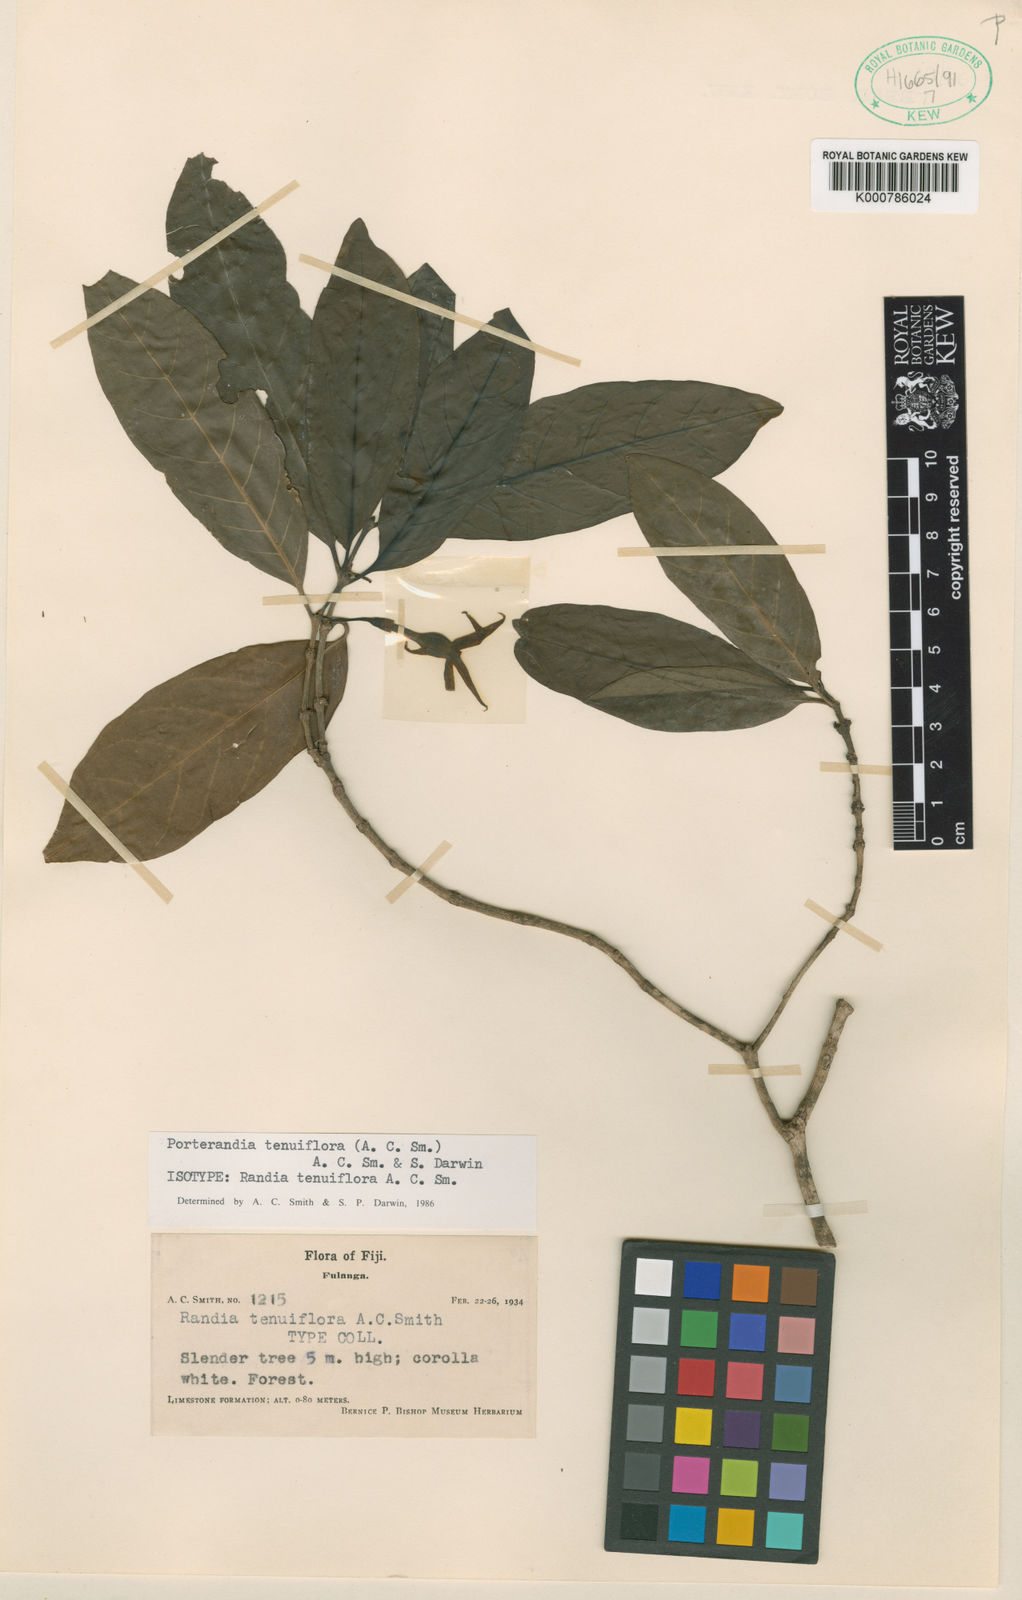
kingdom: Plantae
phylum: Tracheophyta
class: Magnoliopsida
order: Gentianales
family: Rubiaceae
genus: Atractocarpus
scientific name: Atractocarpus tenuiflorus
